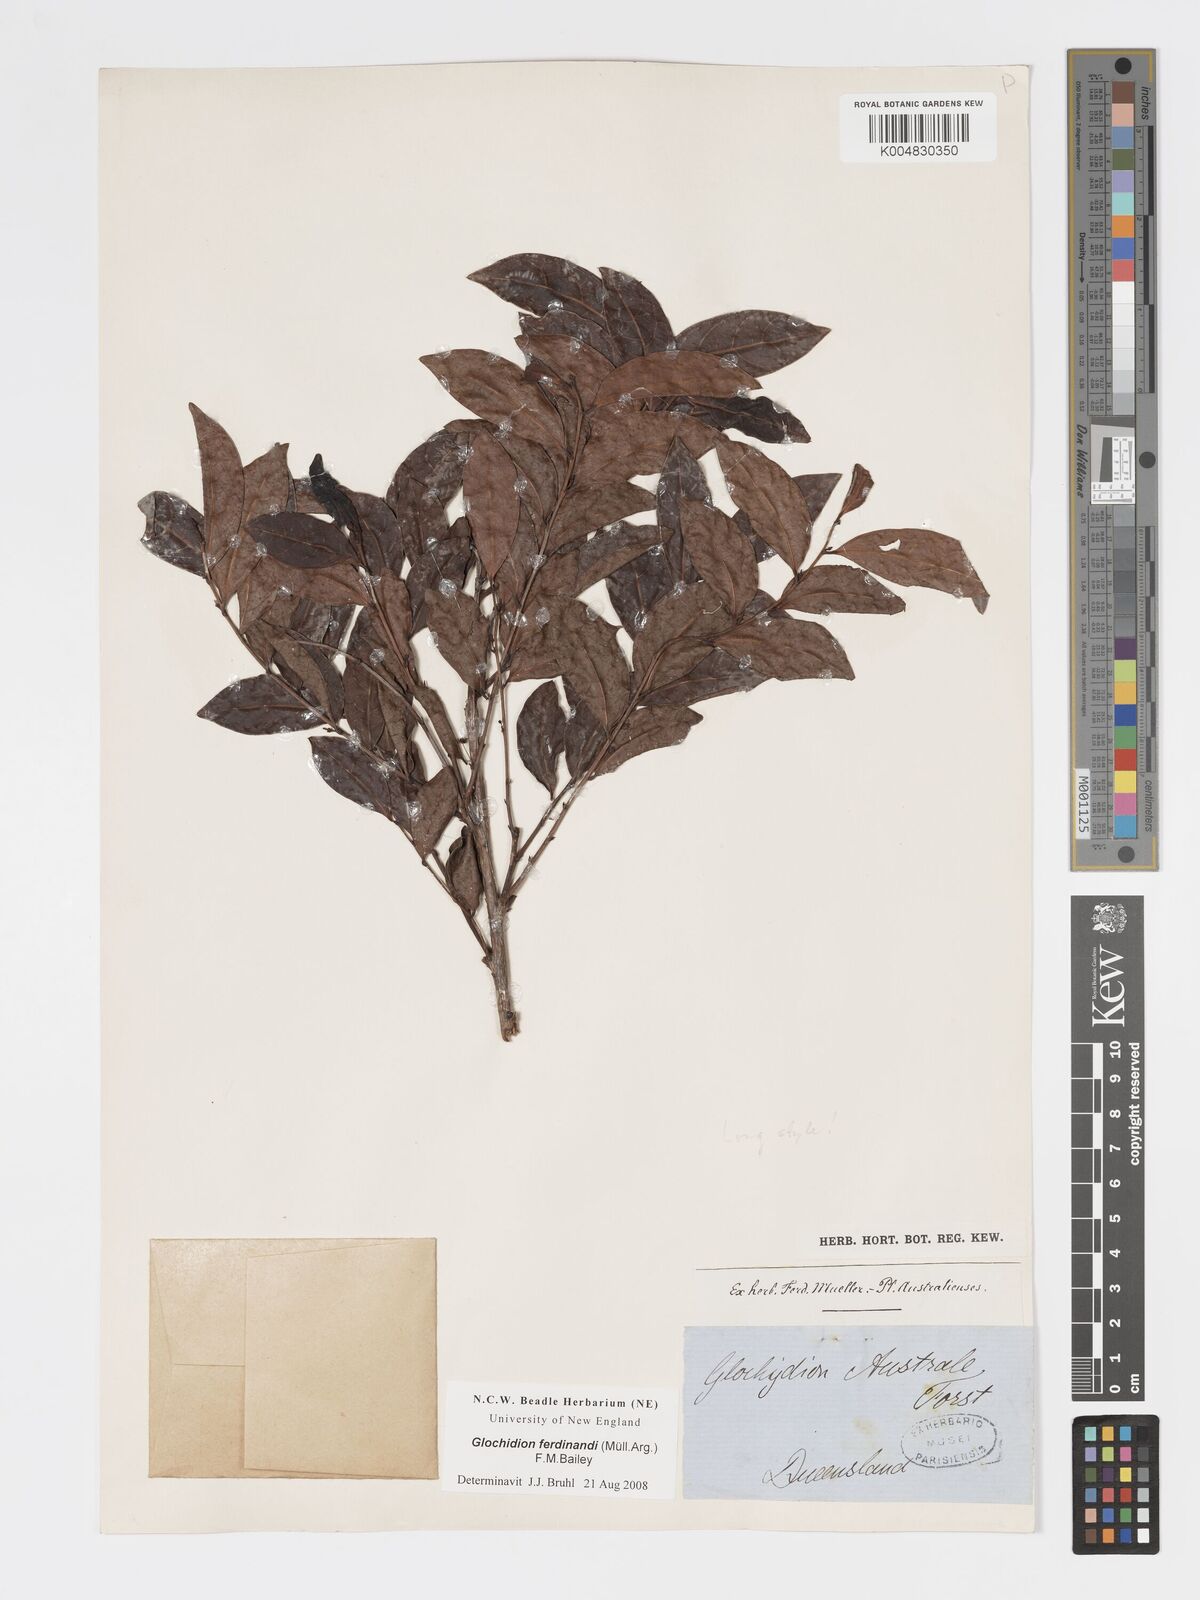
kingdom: Plantae
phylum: Tracheophyta
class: Magnoliopsida
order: Malpighiales
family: Phyllanthaceae
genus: Glochidion
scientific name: Glochidion ferdinandi
